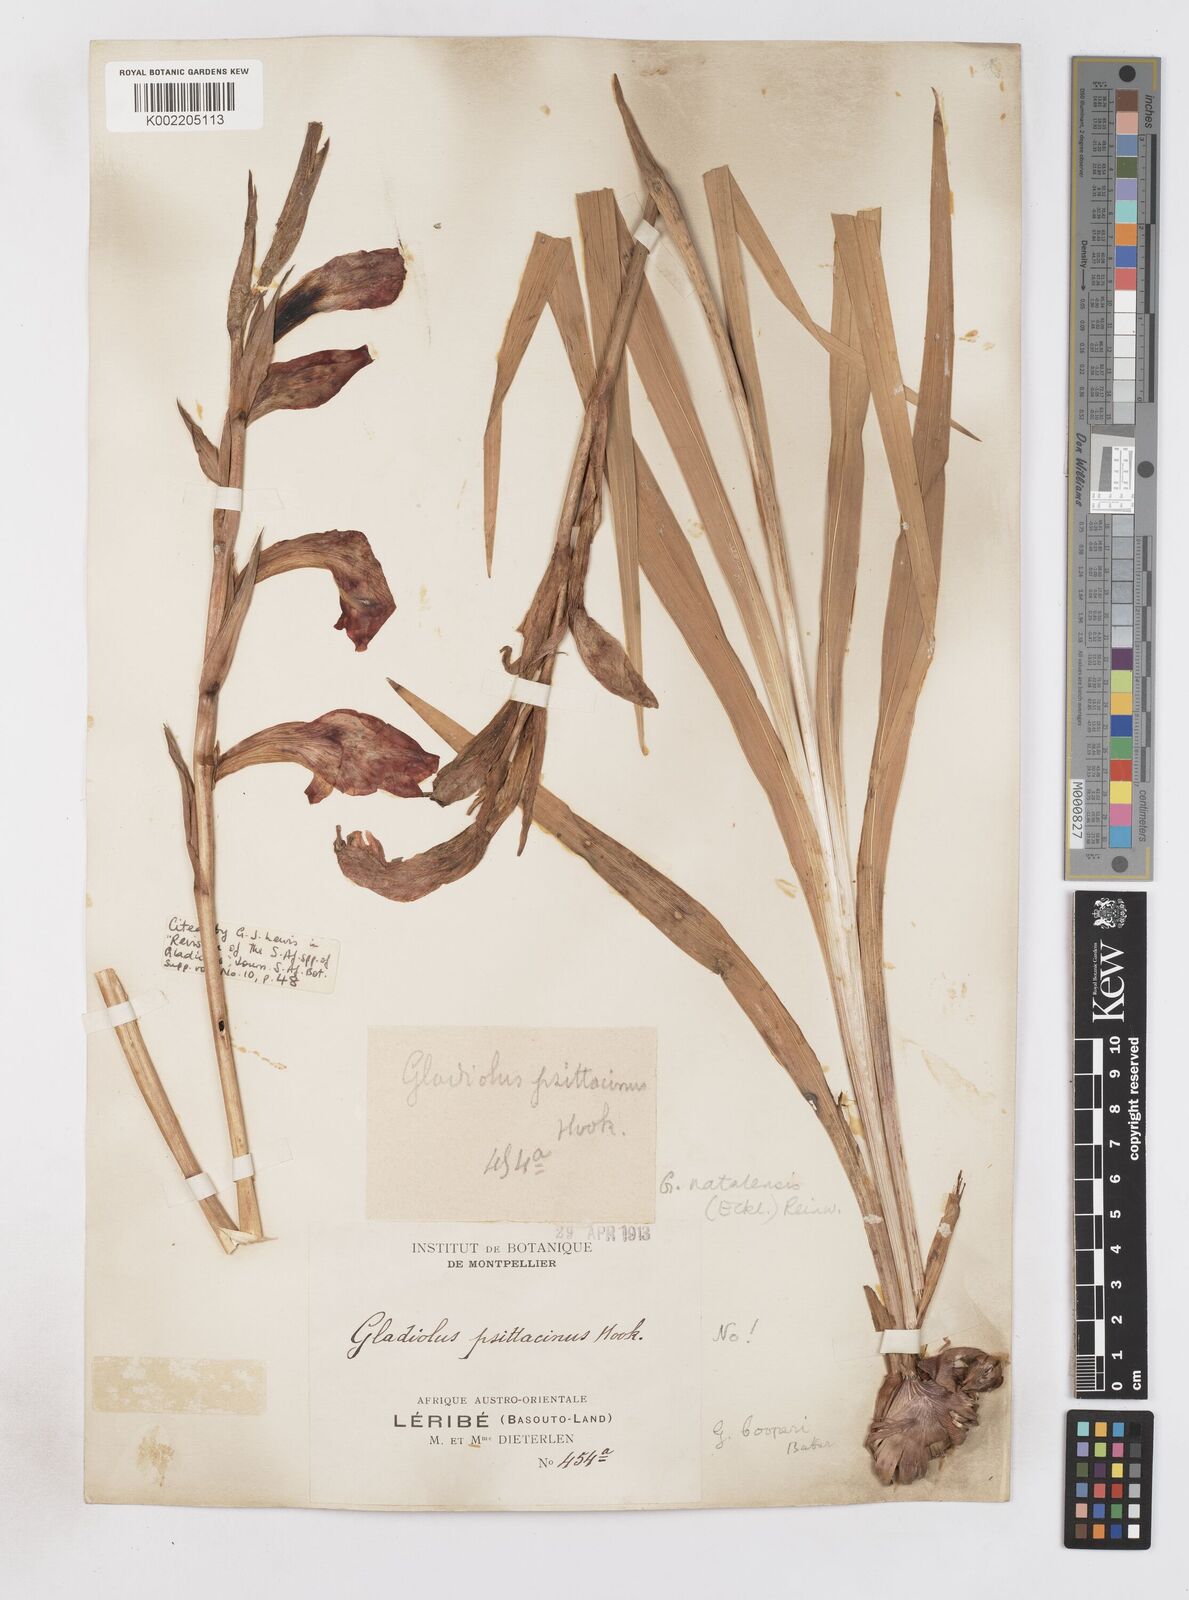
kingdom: Plantae
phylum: Tracheophyta
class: Liliopsida
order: Asparagales
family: Iridaceae
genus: Gladiolus
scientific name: Gladiolus dalenii
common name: Cornflag
